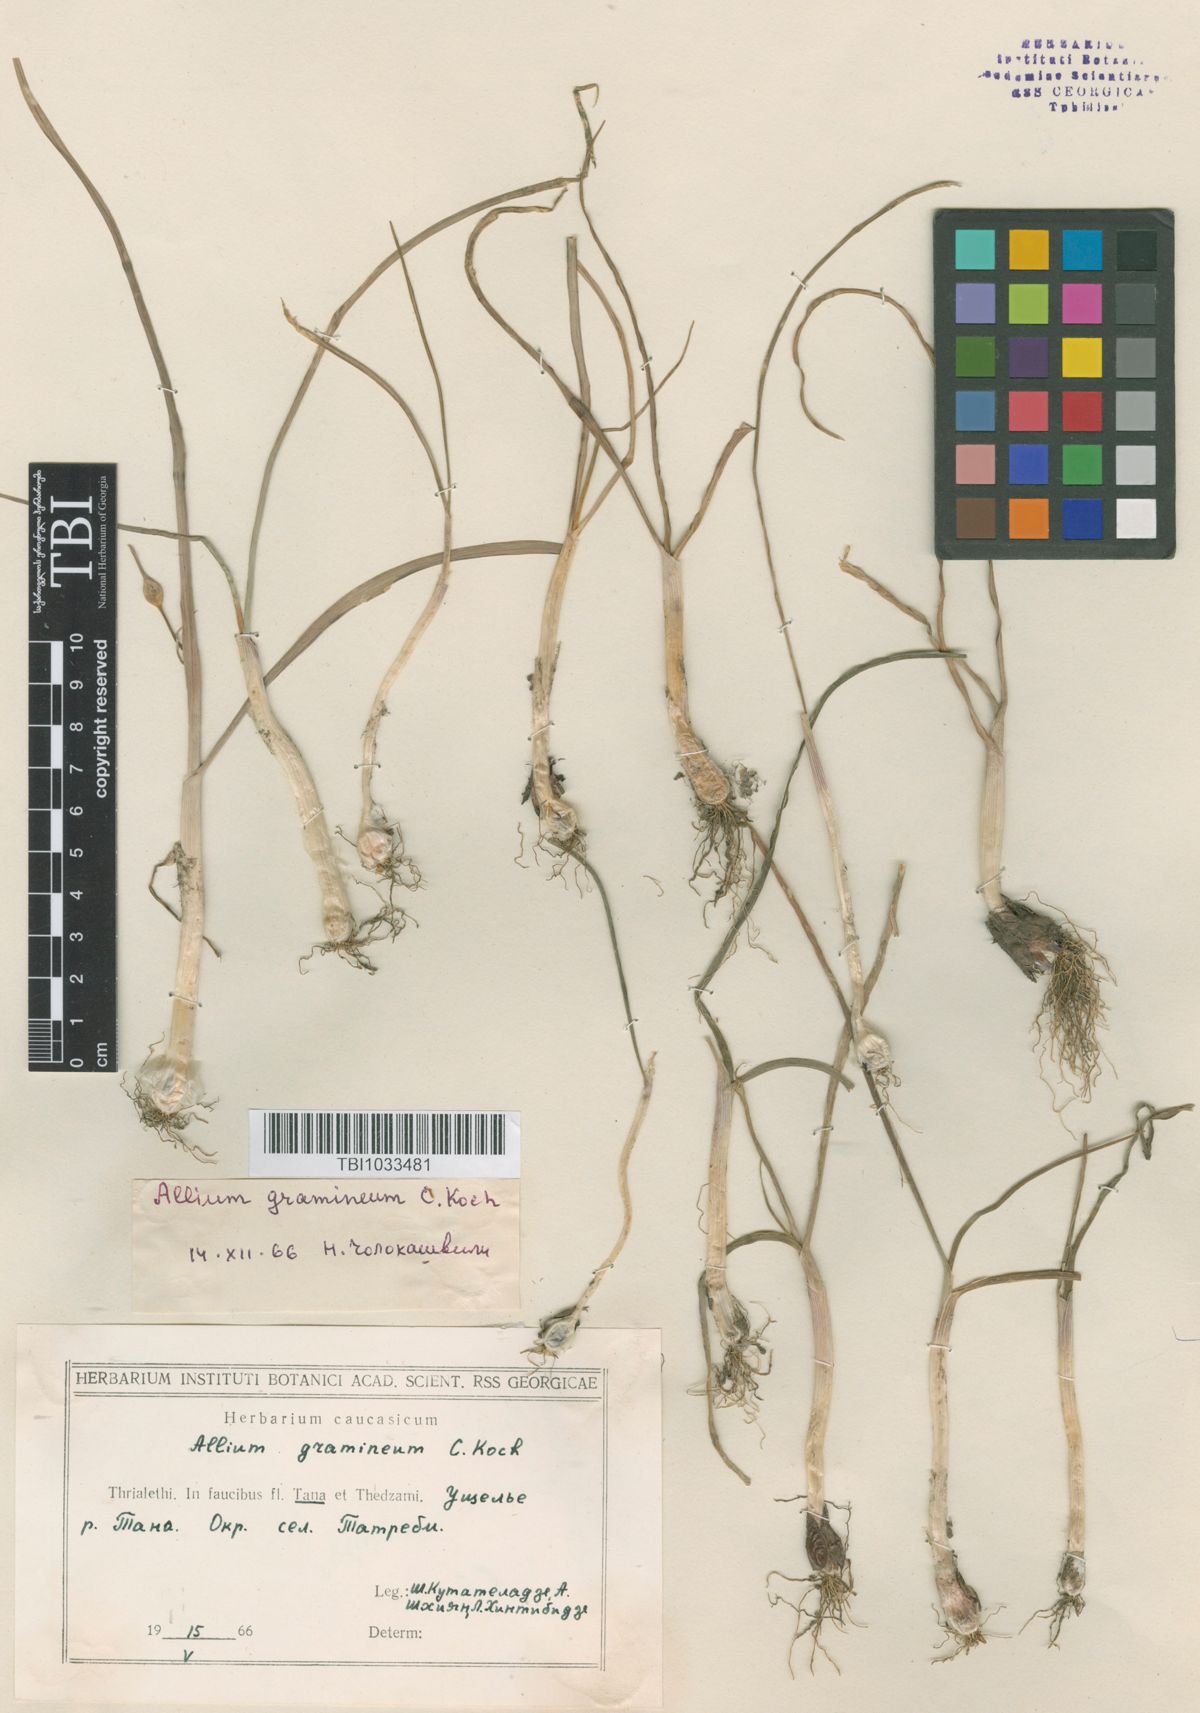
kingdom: Plantae
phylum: Tracheophyta
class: Liliopsida
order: Asparagales
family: Amaryllidaceae
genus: Allium
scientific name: Allium gramineum
